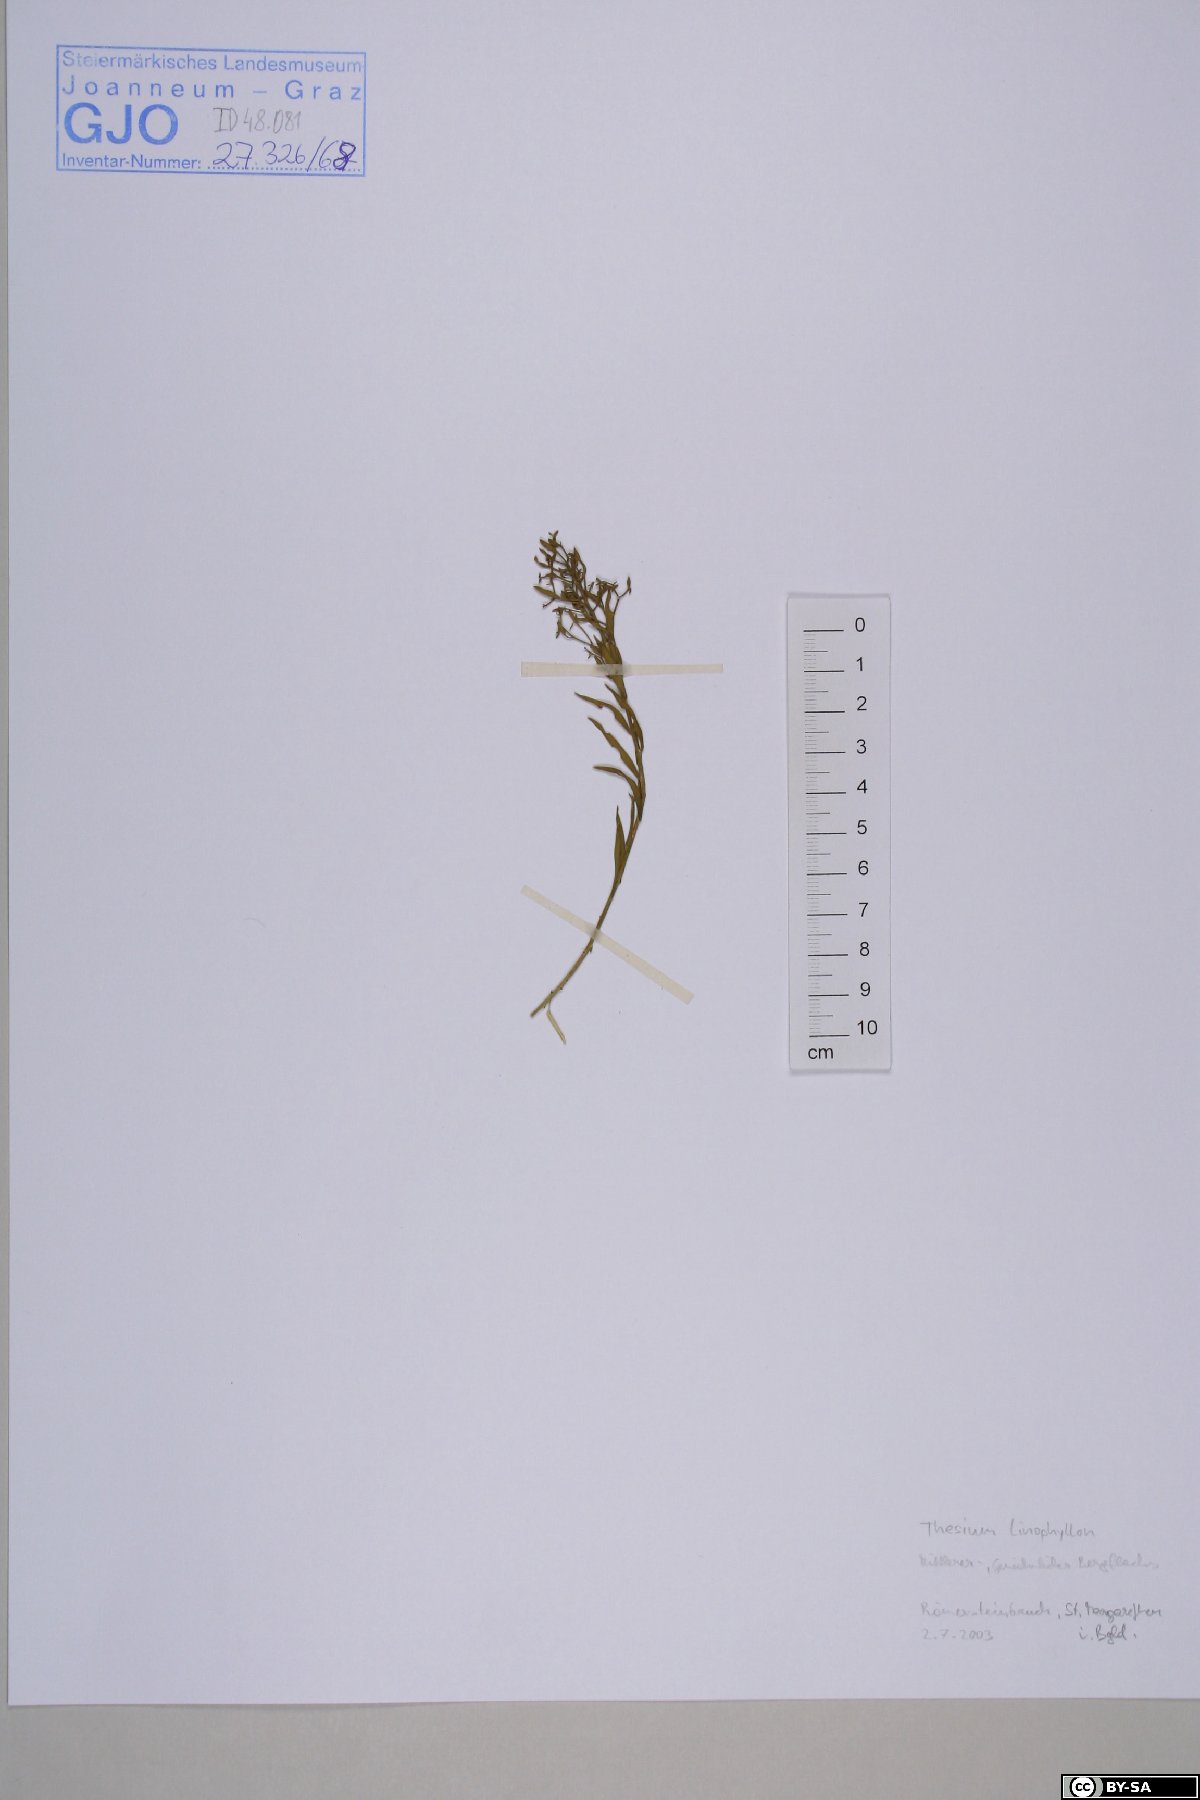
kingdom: Plantae
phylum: Tracheophyta
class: Magnoliopsida
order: Santalales
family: Thesiaceae
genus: Thesium
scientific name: Thesium linophyllon
